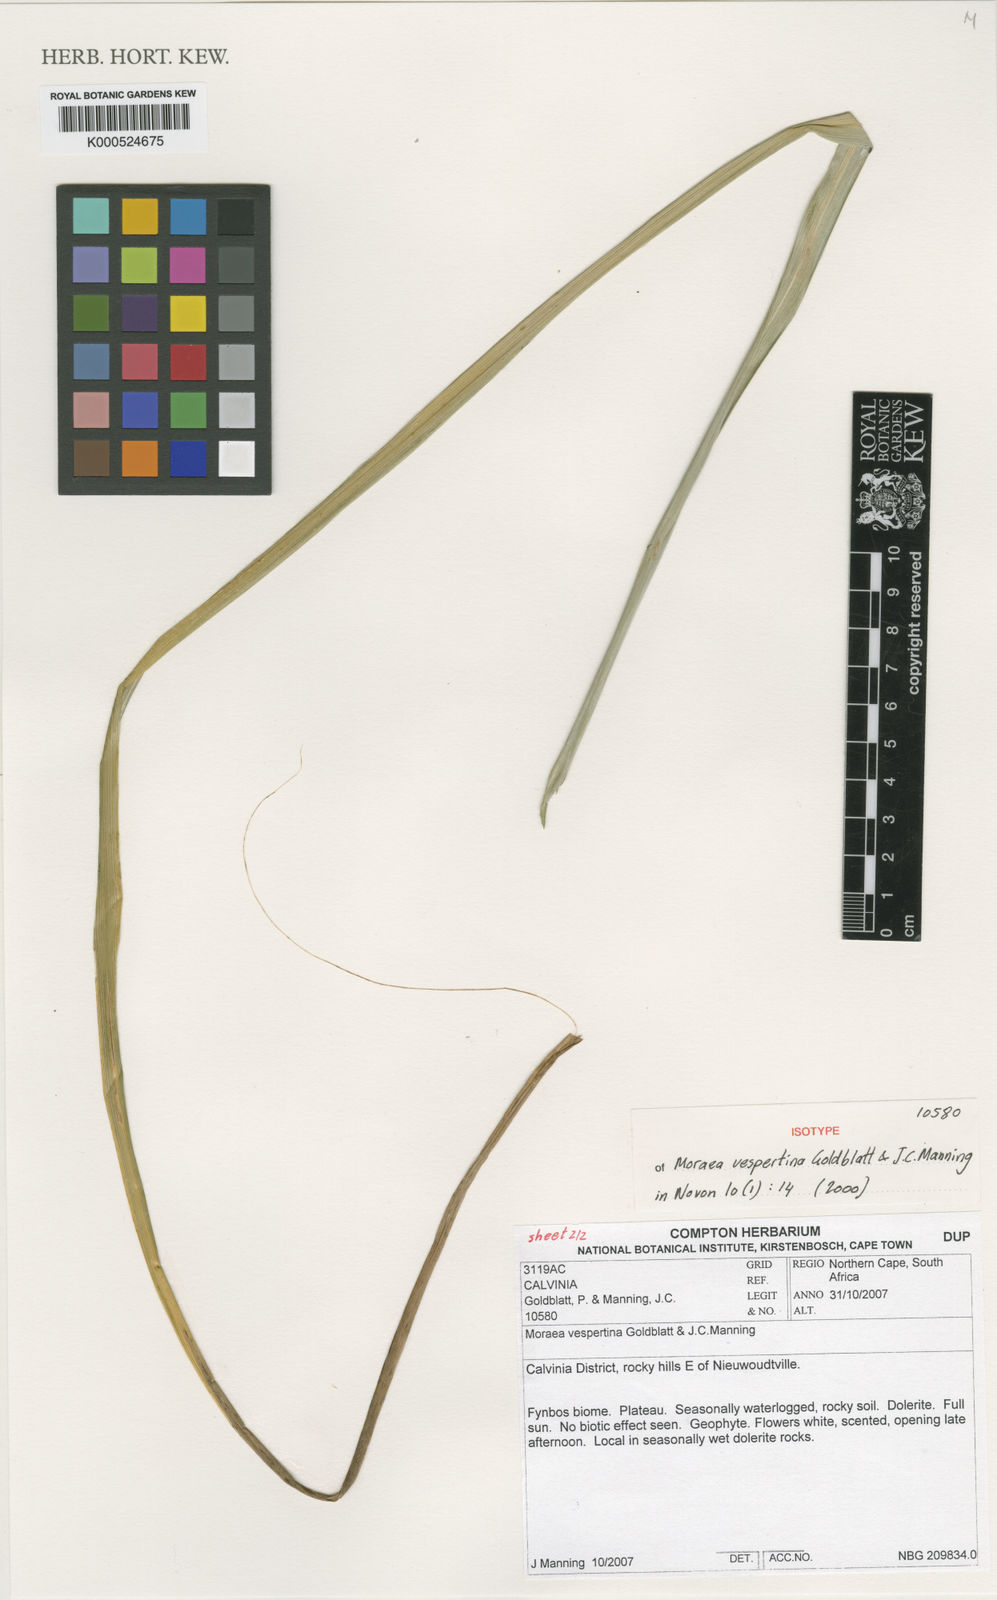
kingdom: Plantae
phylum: Tracheophyta
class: Liliopsida
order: Asparagales
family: Iridaceae
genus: Moraea
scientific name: Moraea vespertina
